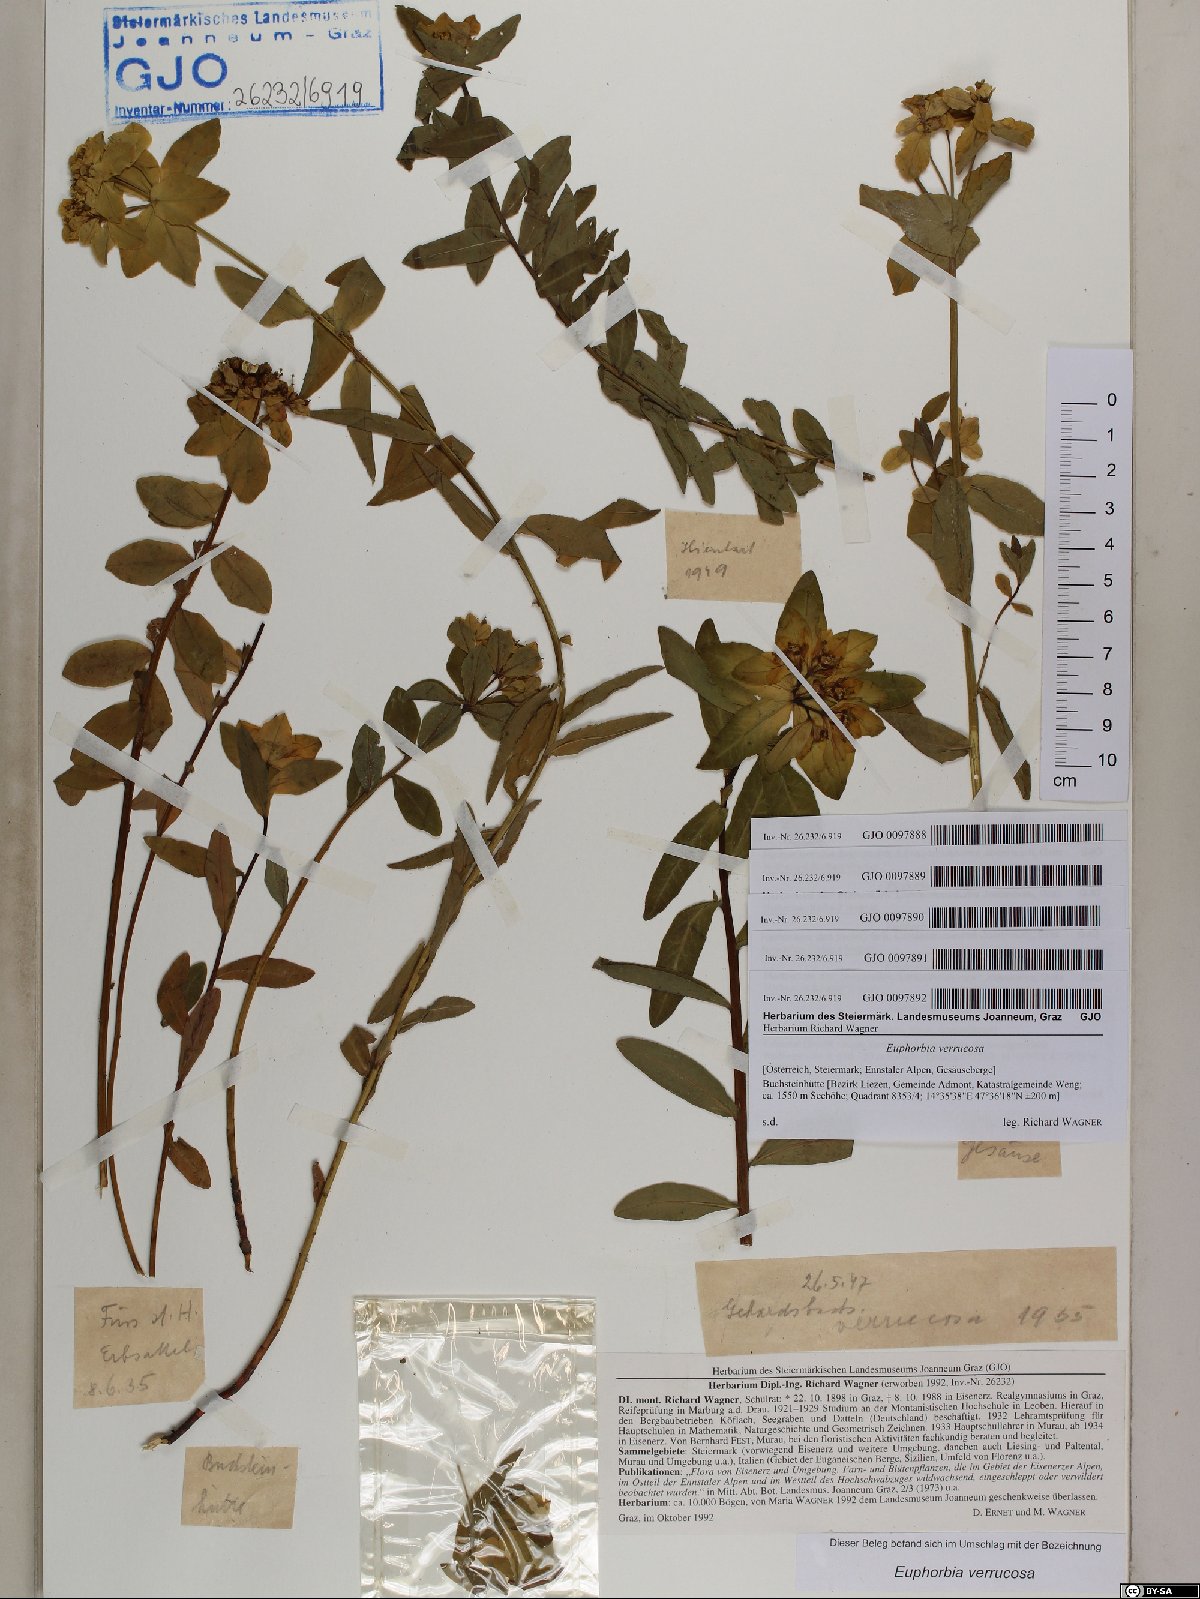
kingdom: Plantae
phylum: Tracheophyta
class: Magnoliopsida
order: Malpighiales
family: Euphorbiaceae
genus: Euphorbia
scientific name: Euphorbia verrucosa
